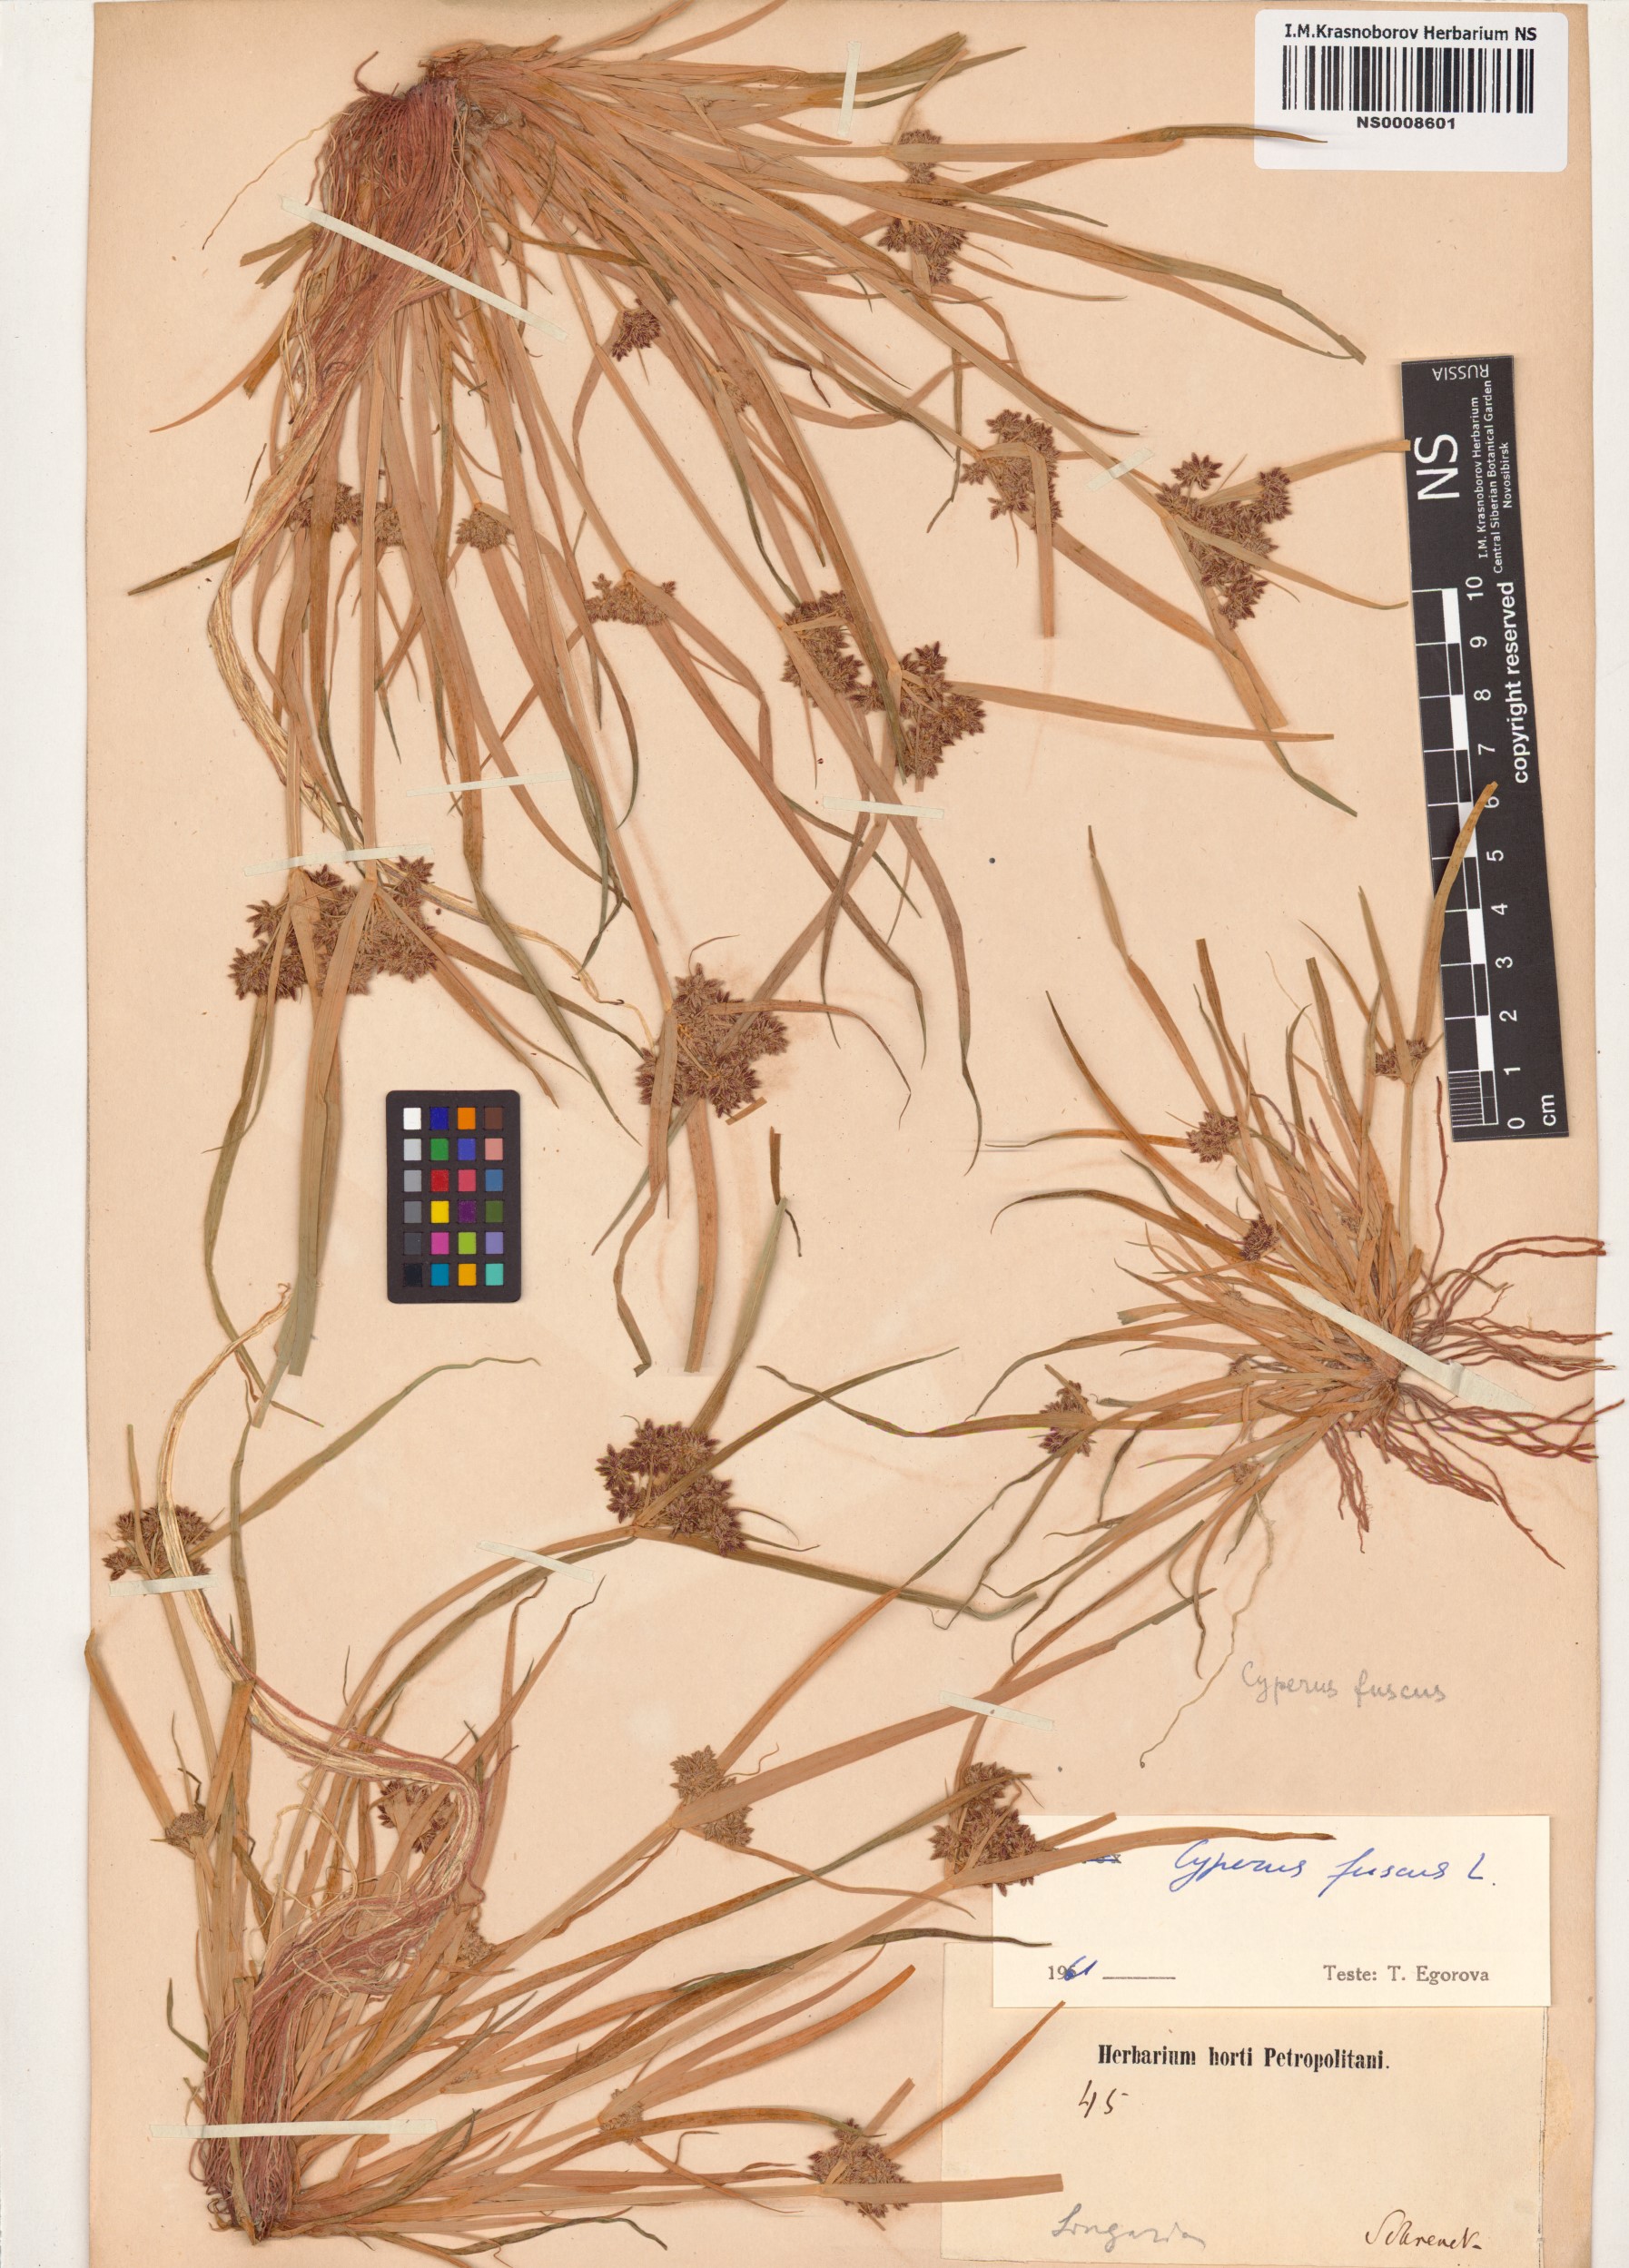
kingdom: Plantae
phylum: Tracheophyta
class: Liliopsida
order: Poales
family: Cyperaceae
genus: Cyperus
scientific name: Cyperus fuscus
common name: Brown galingale
